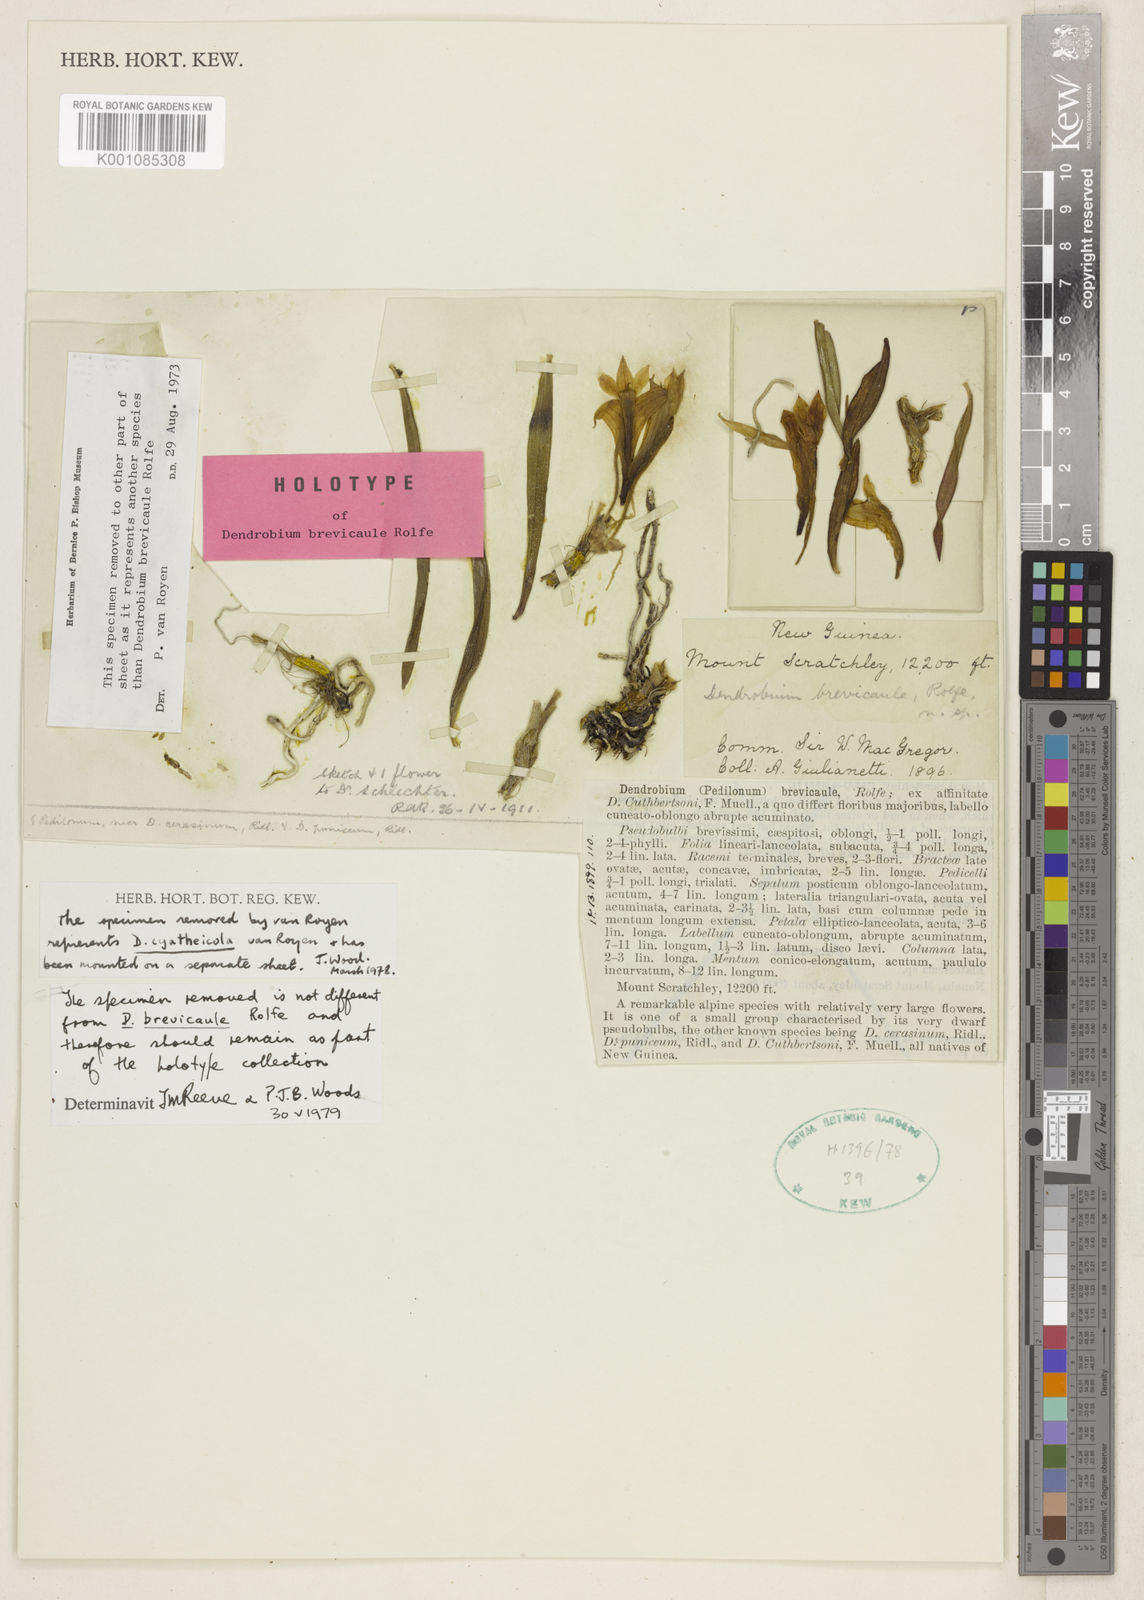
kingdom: Plantae
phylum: Tracheophyta
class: Liliopsida
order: Asparagales
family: Orchidaceae
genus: Dendrobium
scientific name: Dendrobium brevicaule
